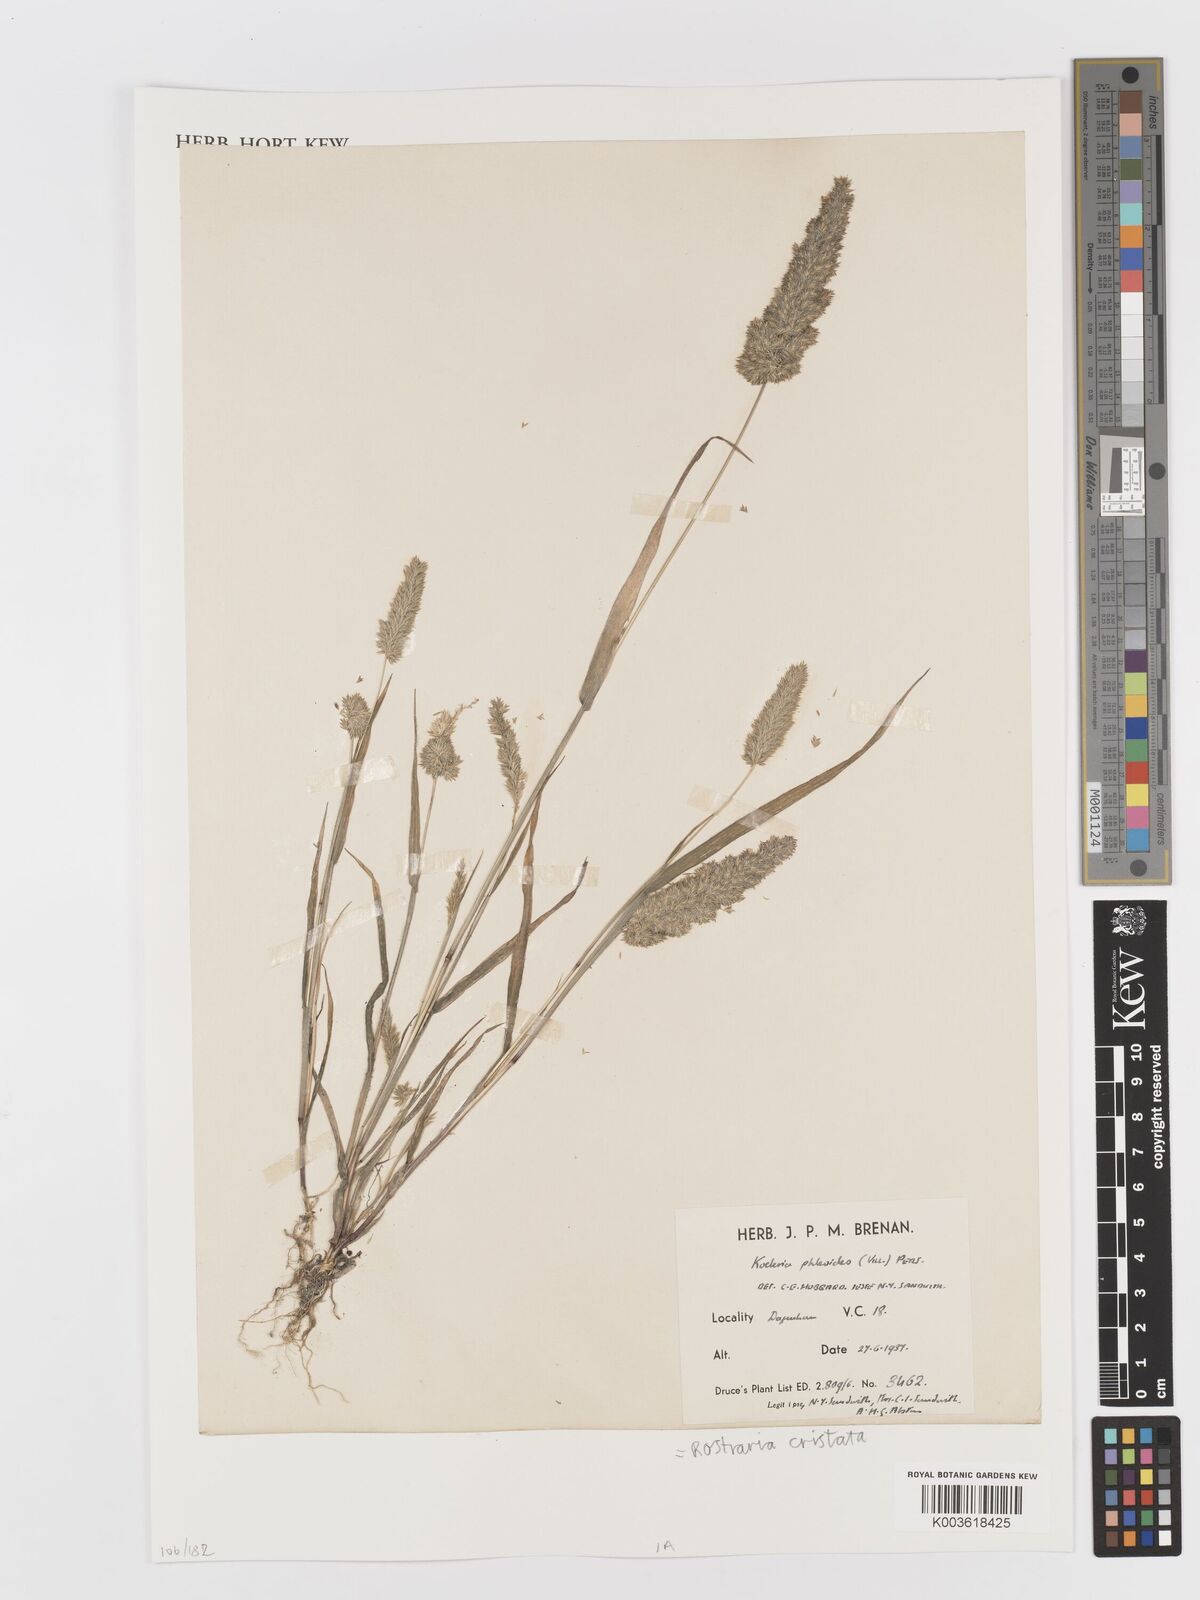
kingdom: Plantae
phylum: Tracheophyta
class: Liliopsida
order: Poales
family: Poaceae
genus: Rostraria
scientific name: Rostraria cristata
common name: Mediterranean hair-grass
